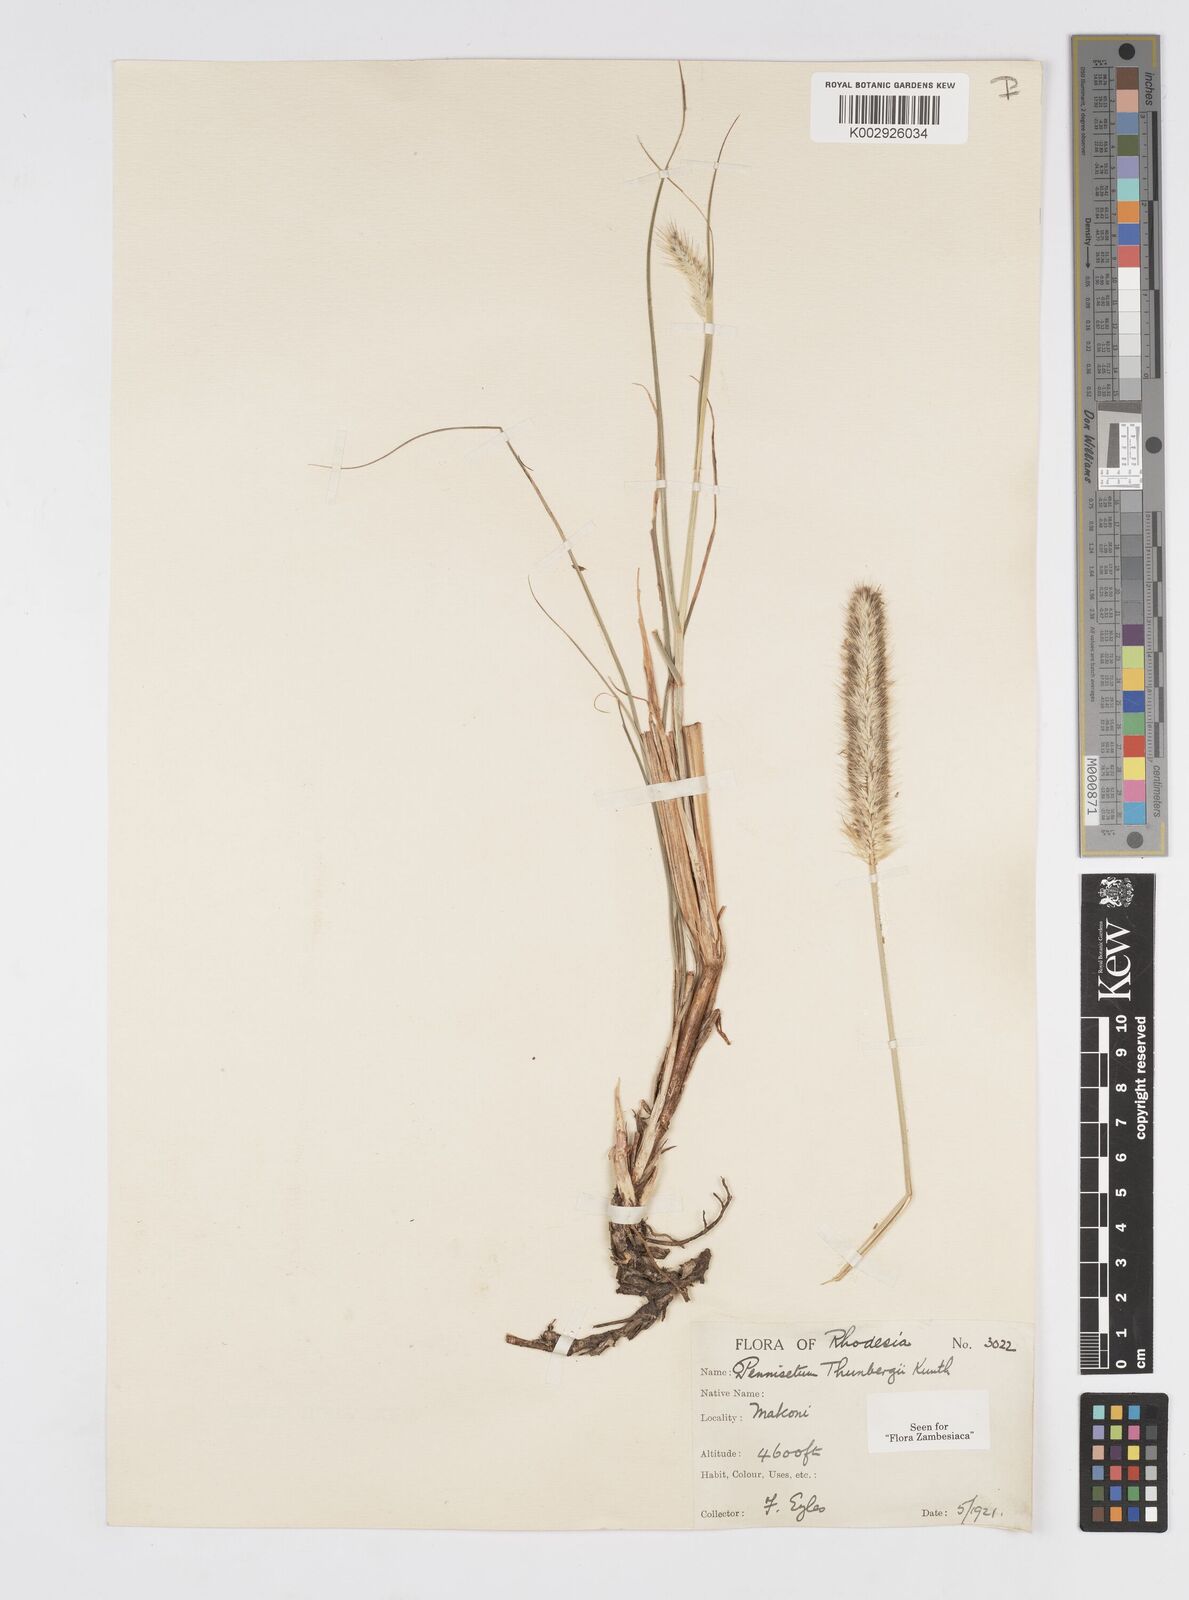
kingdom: Plantae
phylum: Tracheophyta
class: Liliopsida
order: Poales
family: Poaceae
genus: Cenchrus
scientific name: Cenchrus geniculatus
